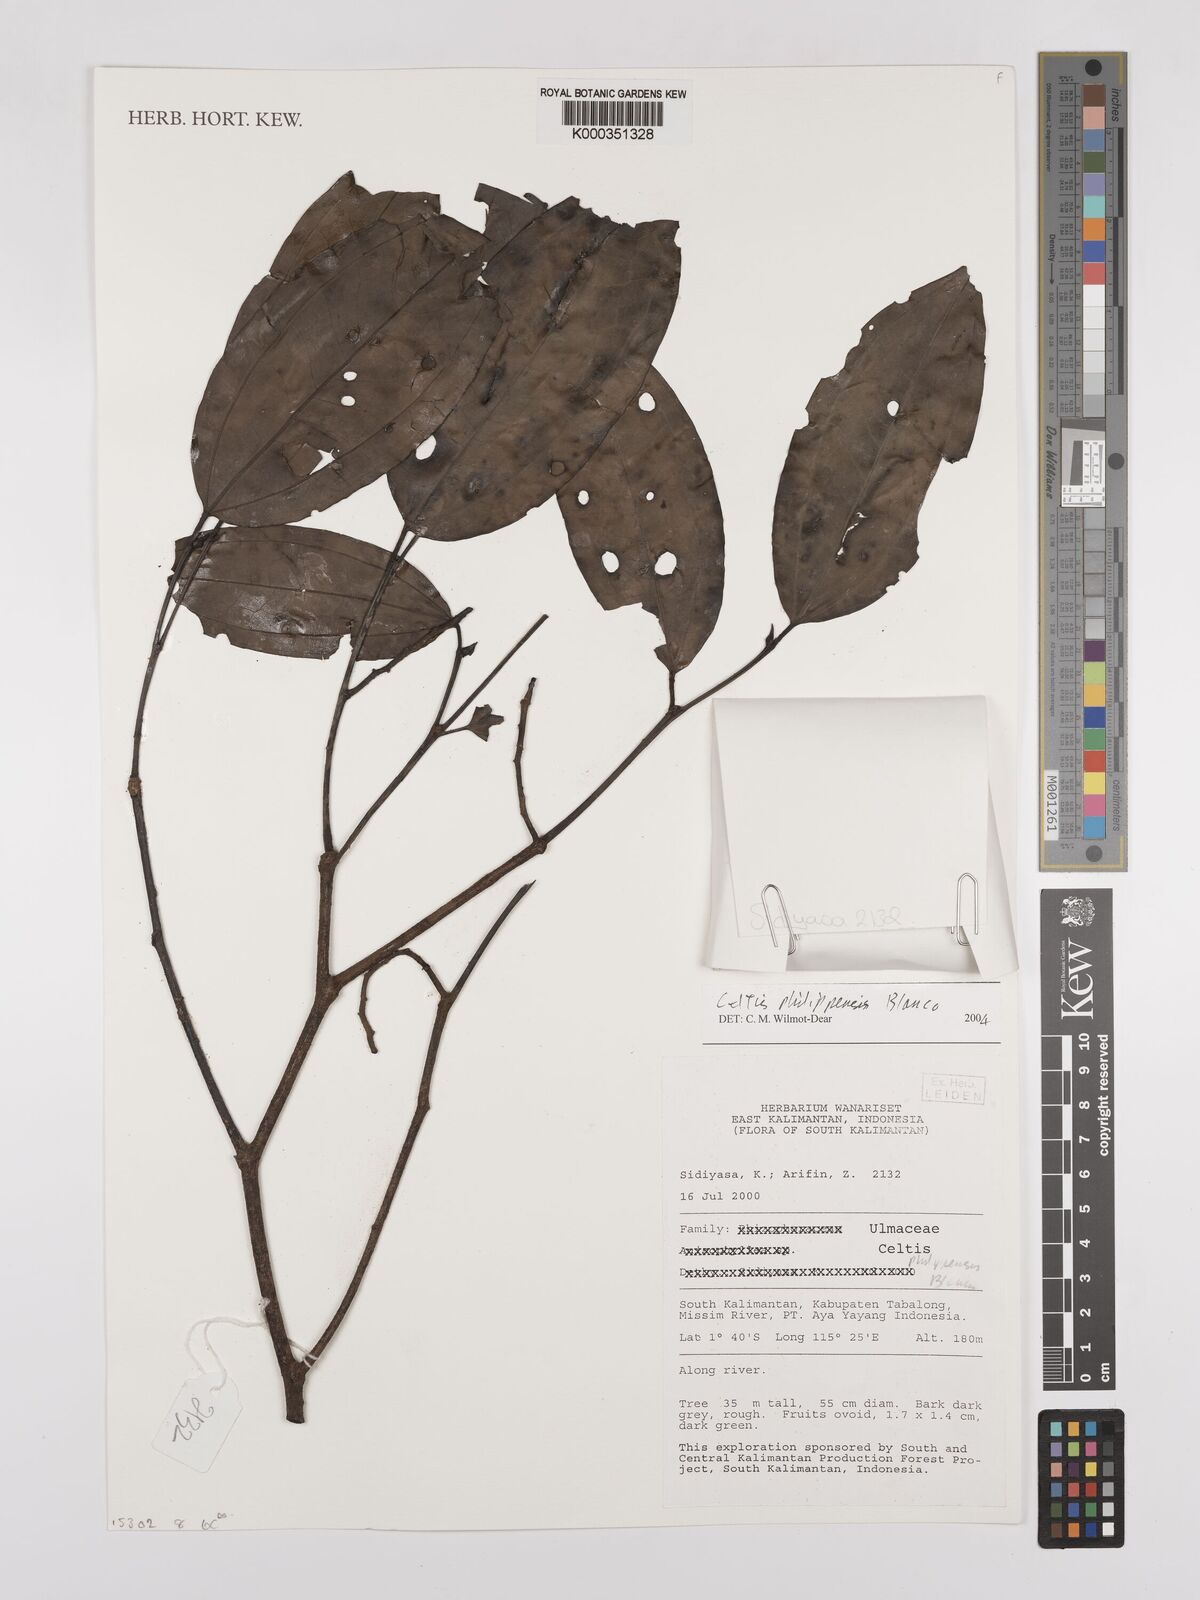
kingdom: Plantae
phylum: Tracheophyta
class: Magnoliopsida
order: Rosales
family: Cannabaceae
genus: Celtis
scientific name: Celtis philippensis
